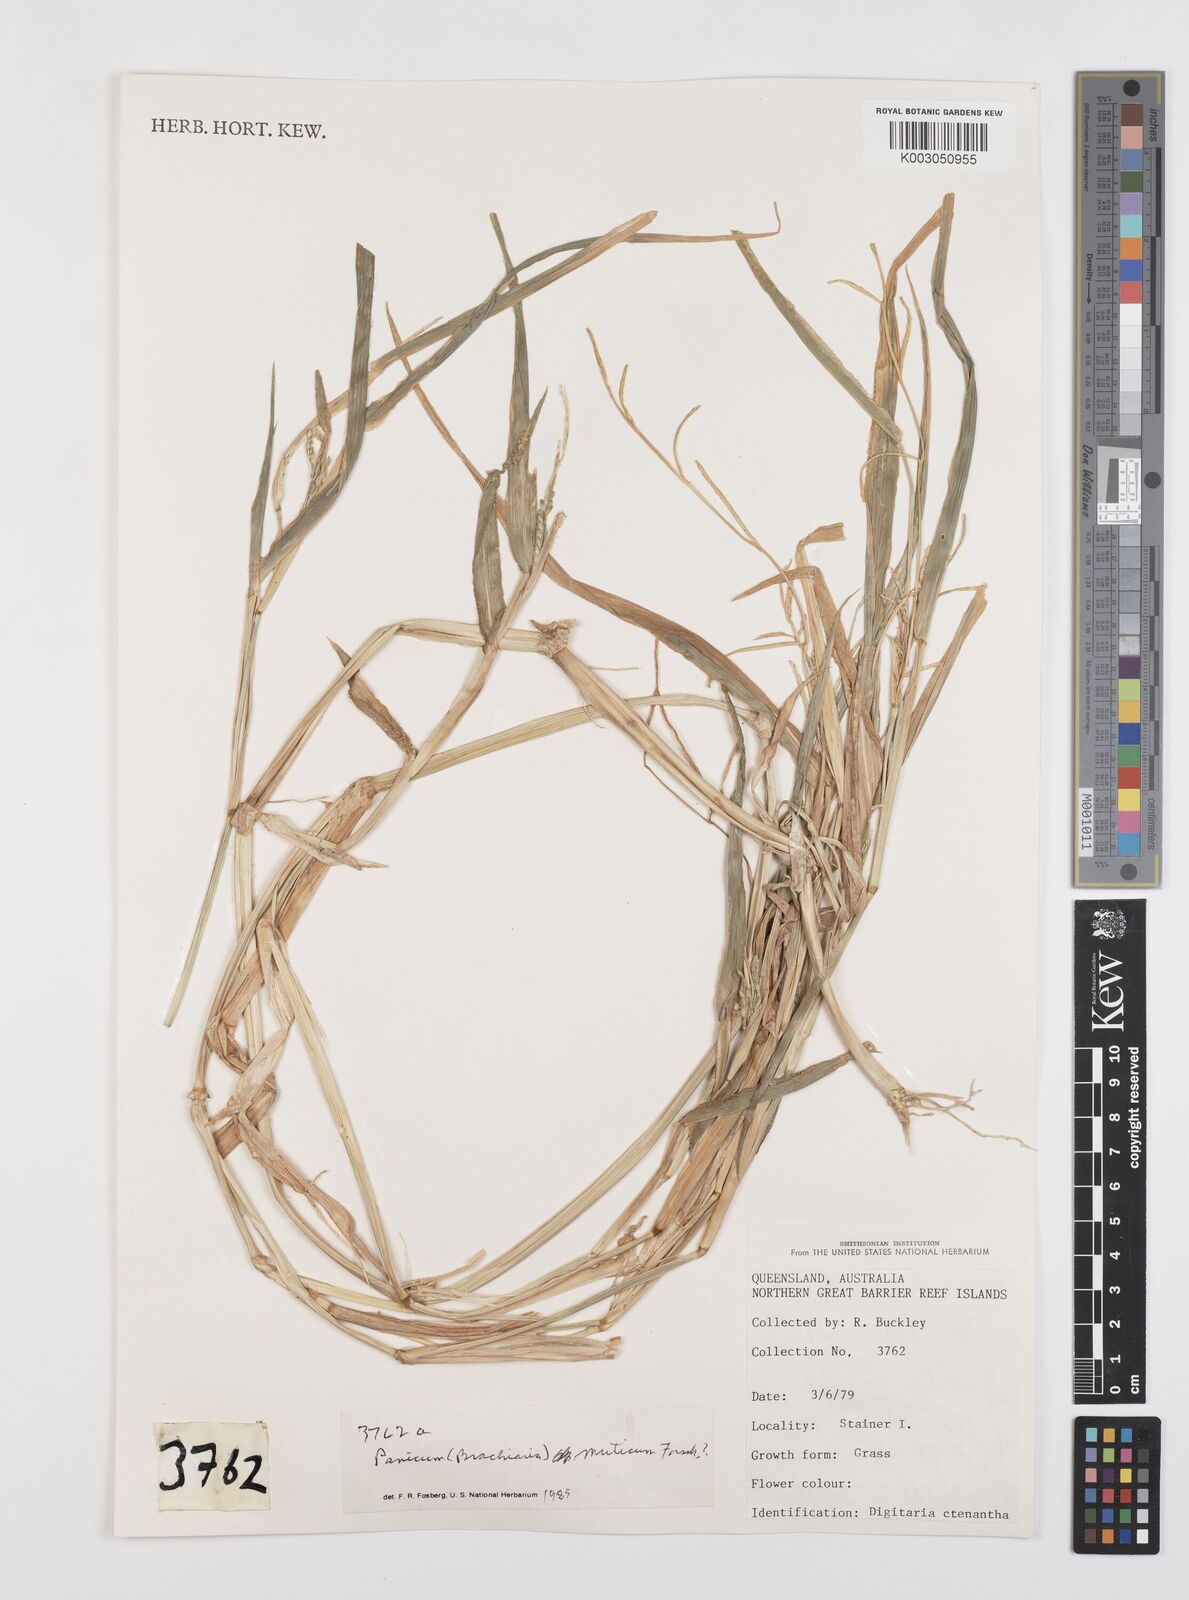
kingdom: Plantae
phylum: Tracheophyta
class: Liliopsida
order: Poales
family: Poaceae
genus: Urochloa
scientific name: Urochloa mutica
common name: Para grass
